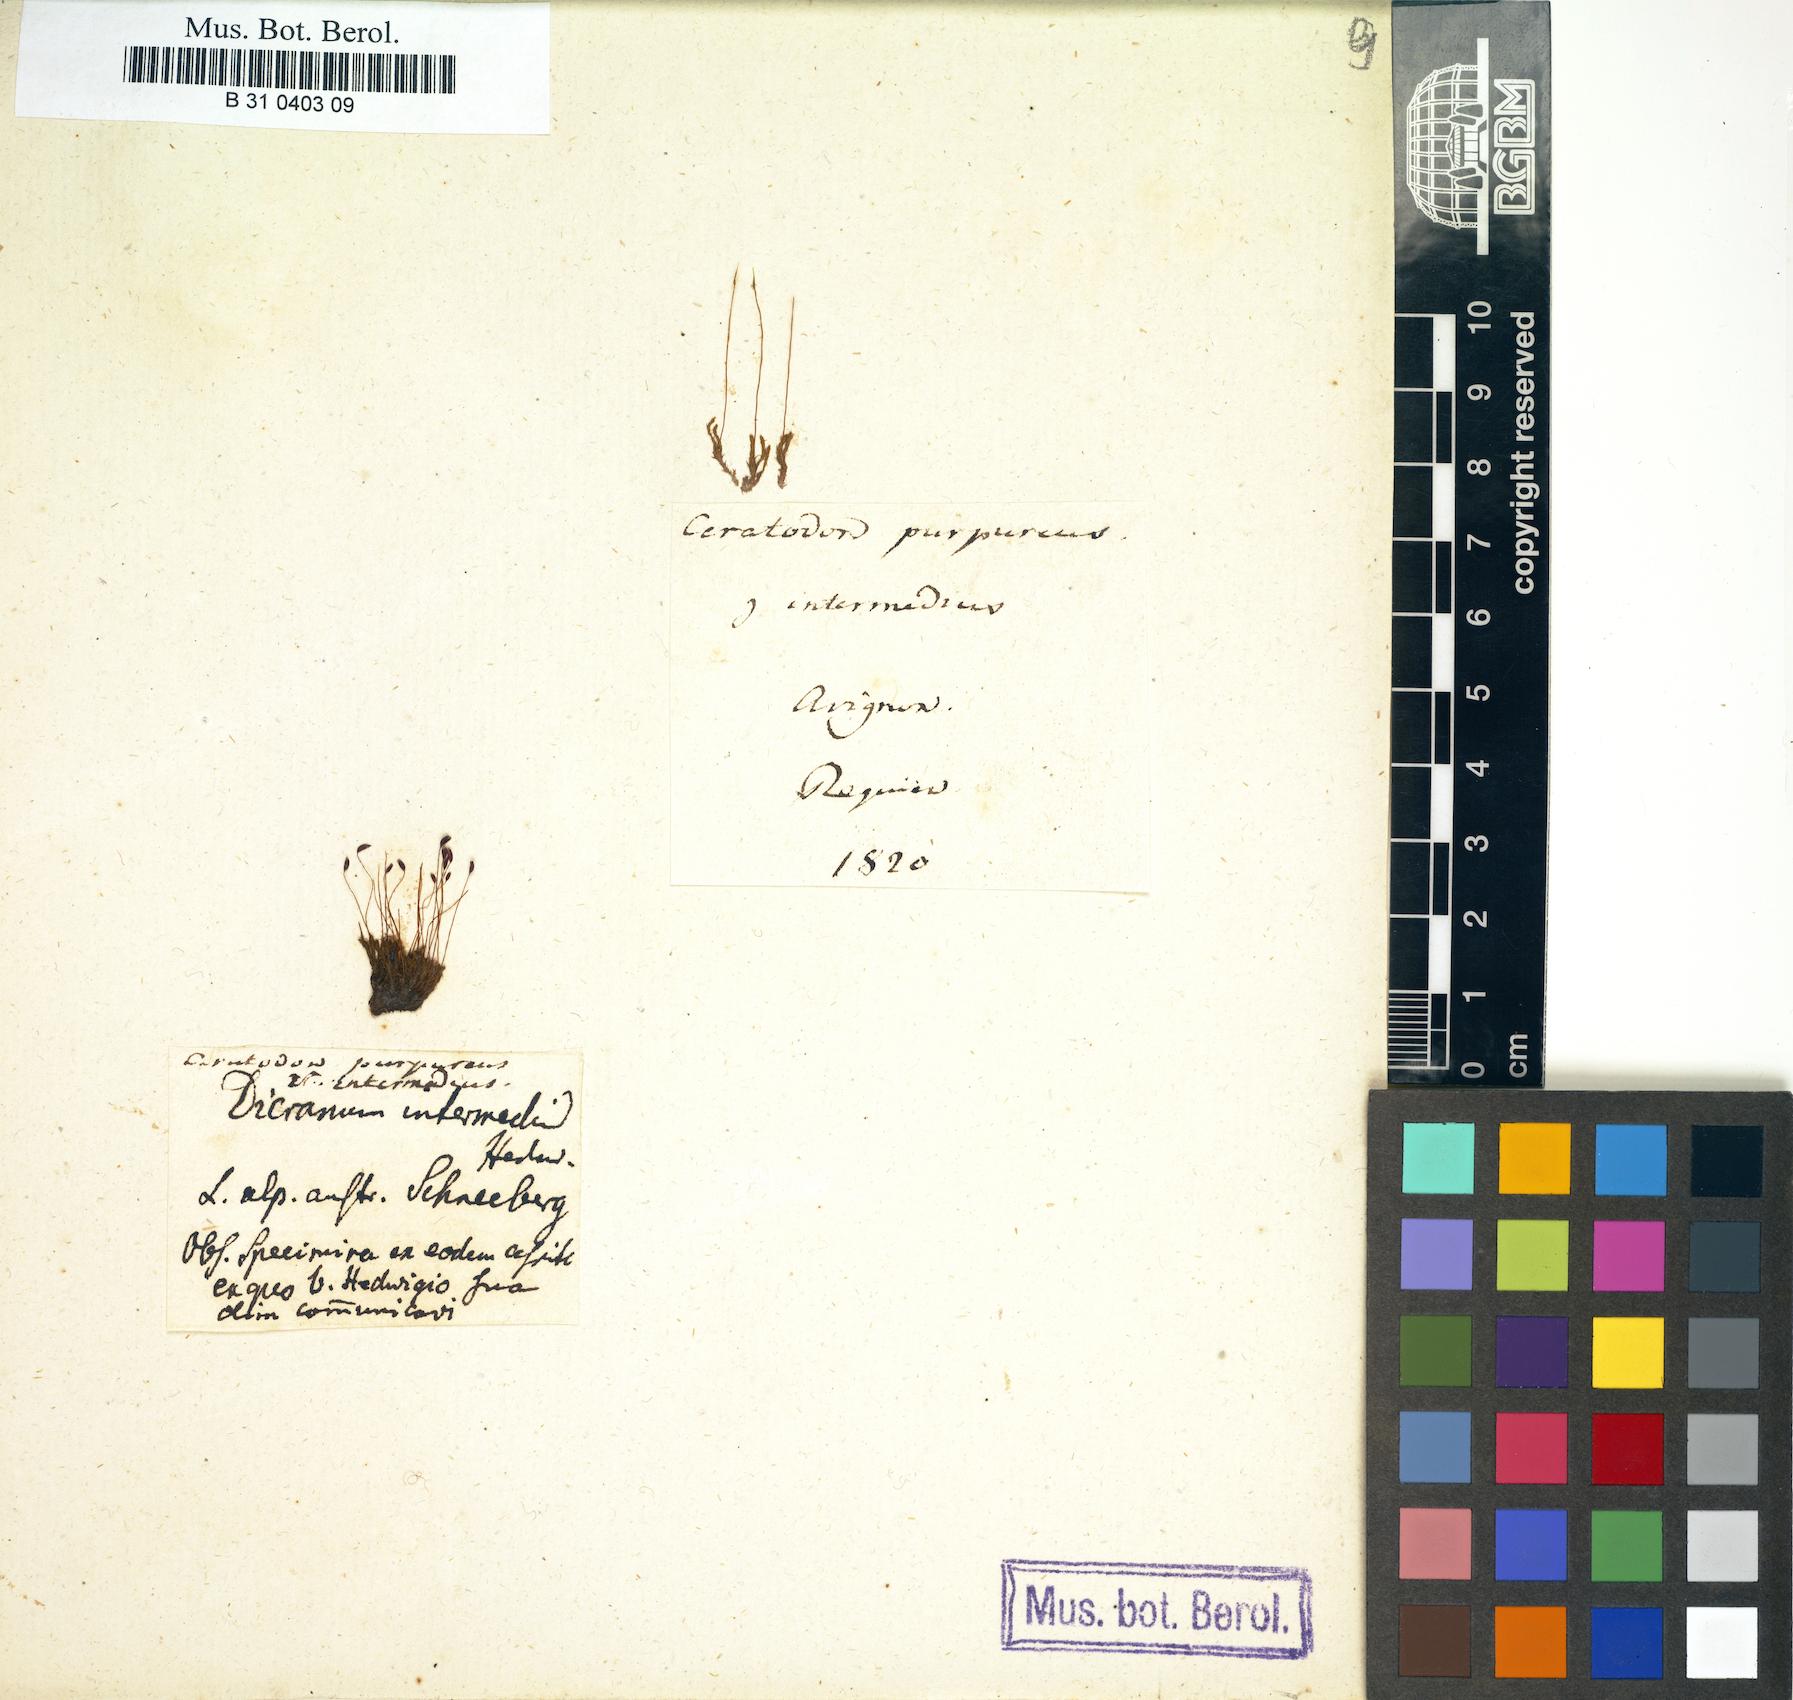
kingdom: Plantae
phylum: Bryophyta
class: Bryopsida
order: Dicranales
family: Ditrichaceae
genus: Ceratodon
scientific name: Ceratodon purpureus
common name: Redshank
